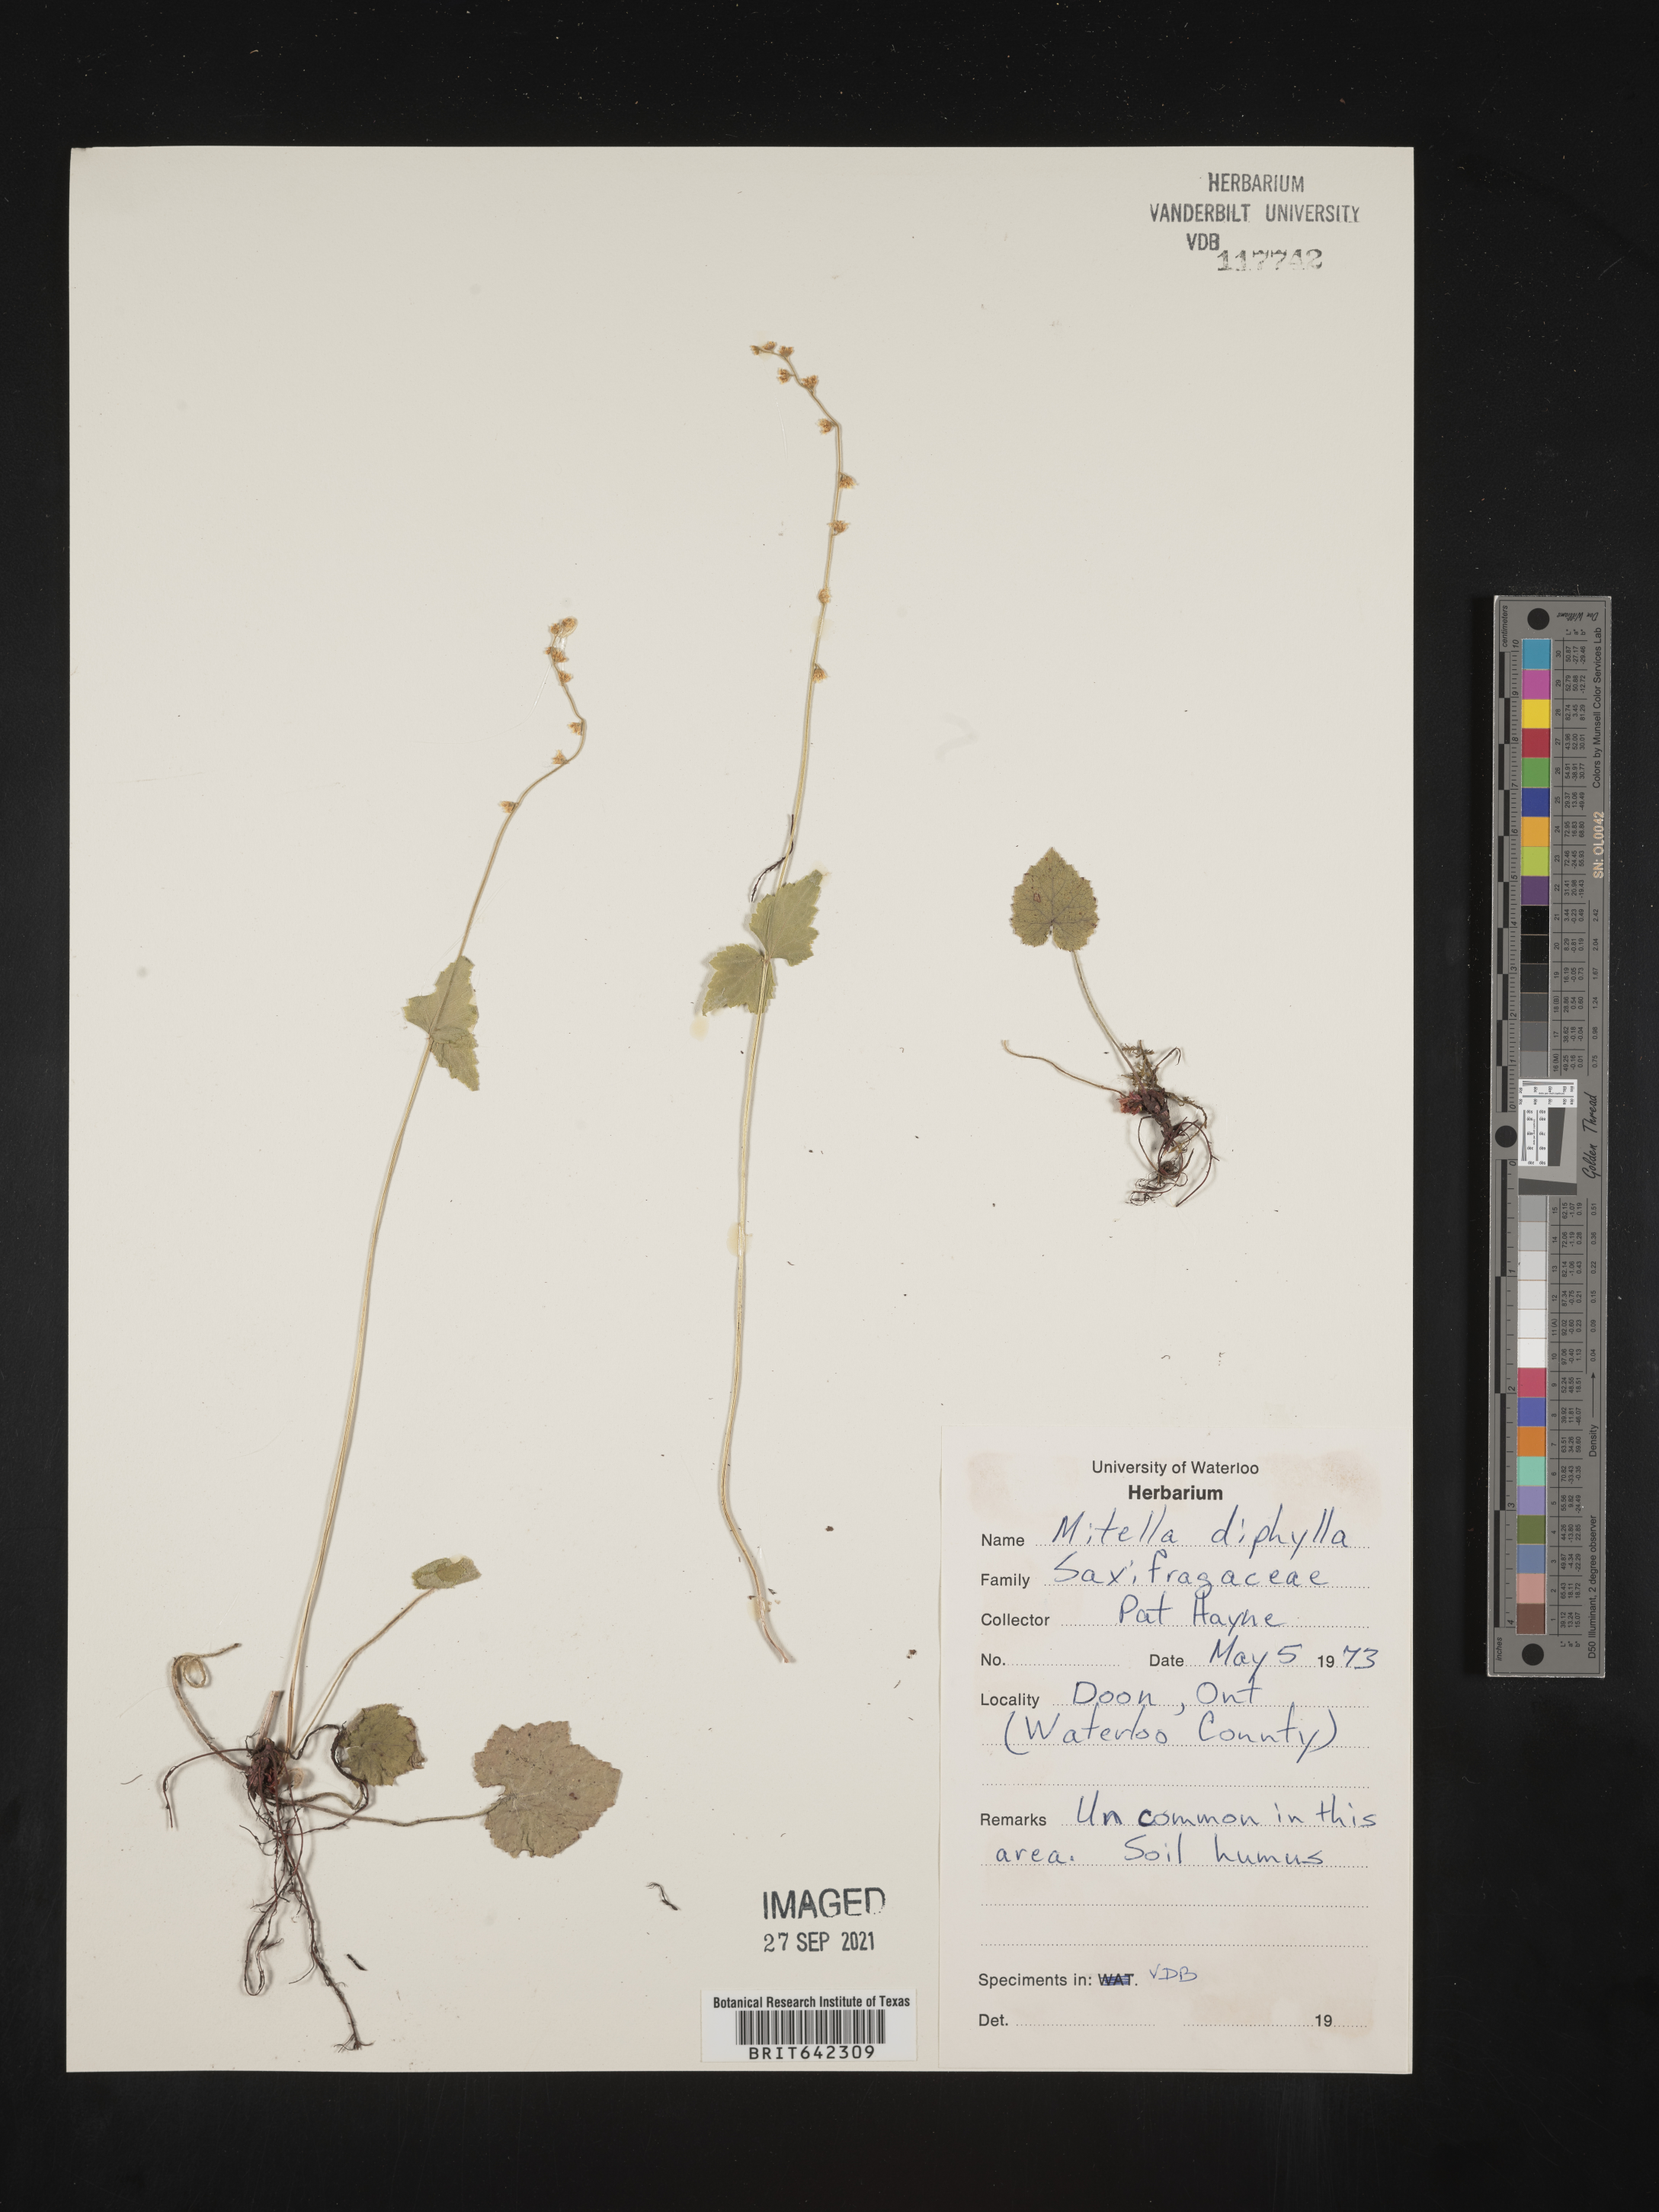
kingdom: Plantae
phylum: Tracheophyta
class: Magnoliopsida
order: Saxifragales
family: Saxifragaceae
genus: Mitella
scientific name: Mitella
